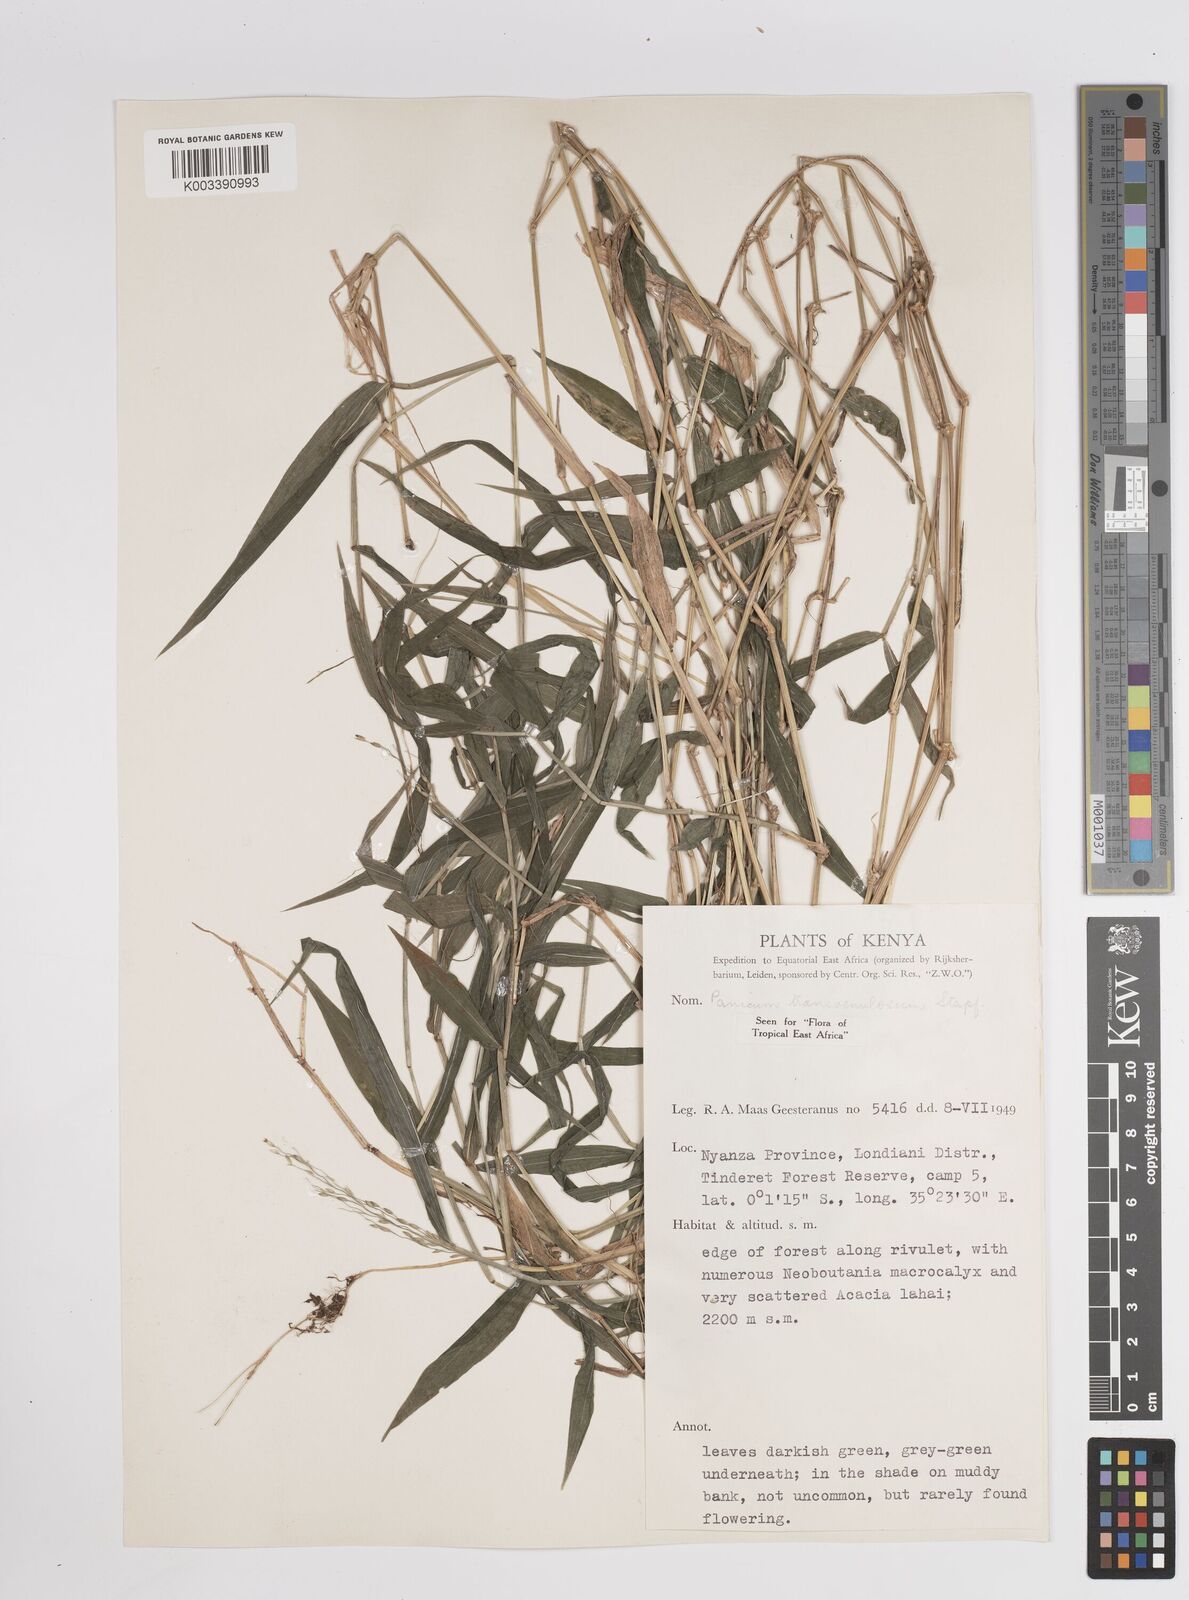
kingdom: Plantae
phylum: Tracheophyta
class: Liliopsida
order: Poales
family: Poaceae
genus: Panicum
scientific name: Panicum monticola
